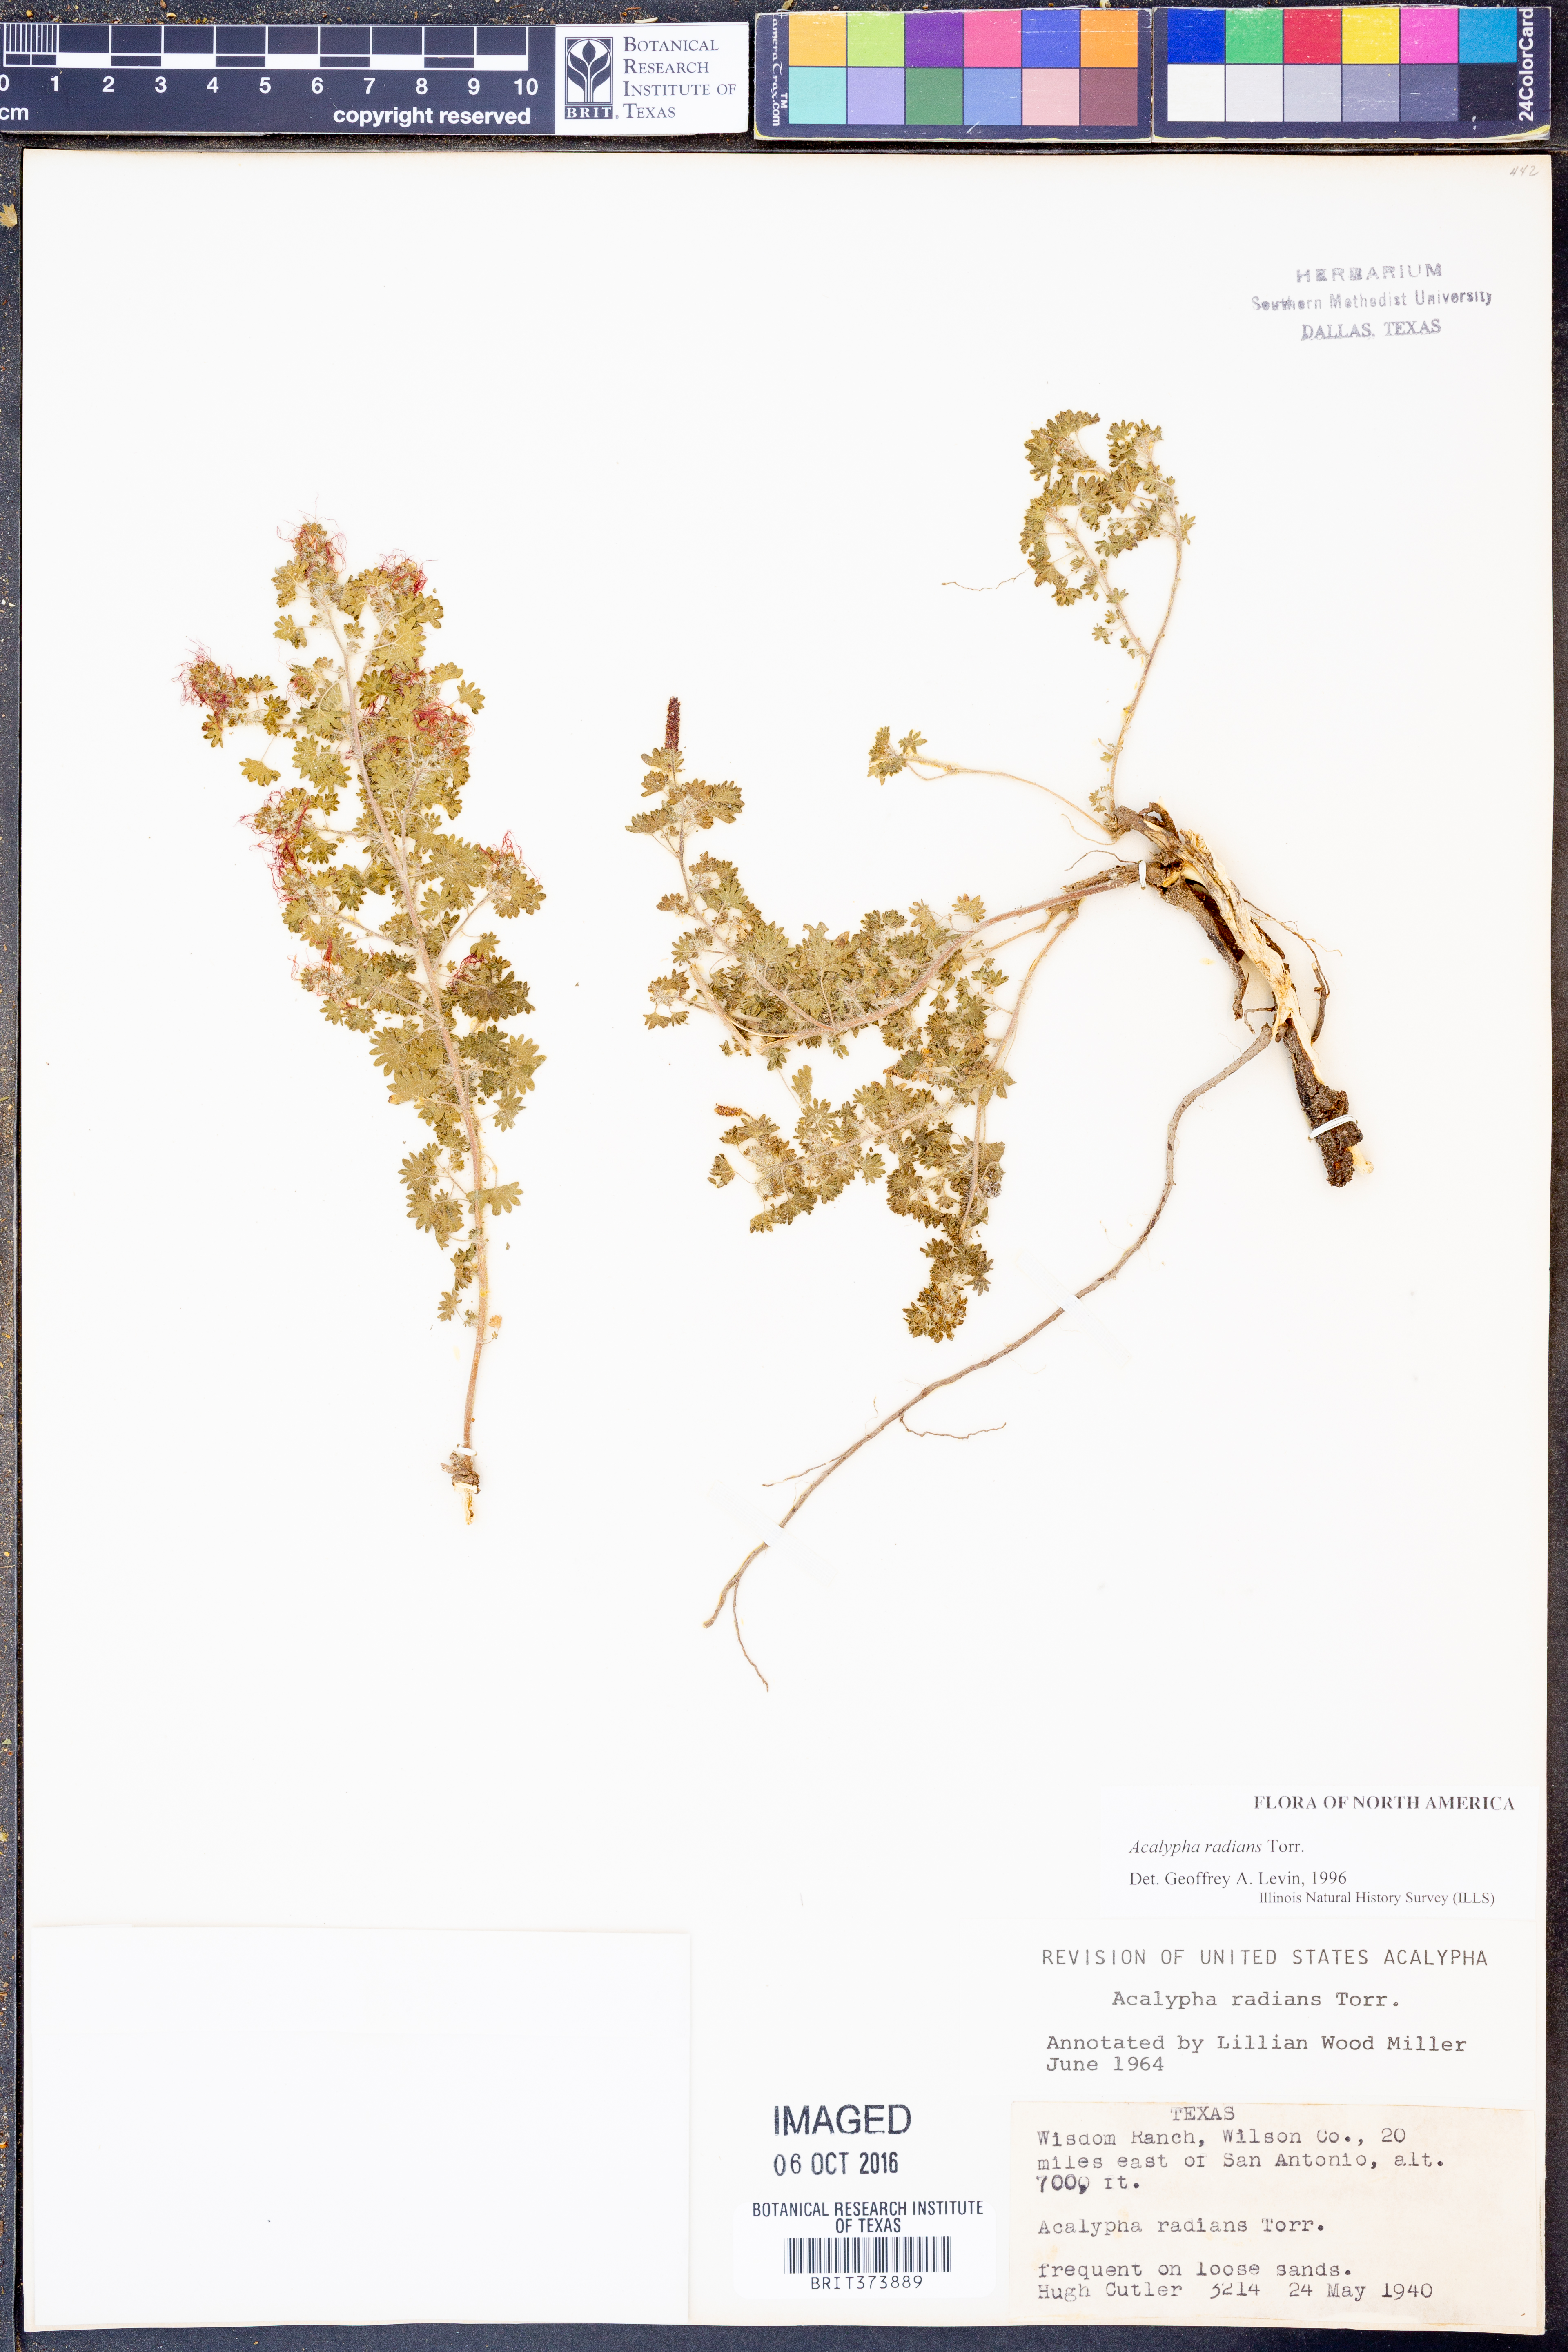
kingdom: Plantae
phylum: Tracheophyta
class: Magnoliopsida
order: Malpighiales
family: Euphorbiaceae
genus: Acalypha
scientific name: Acalypha radians
